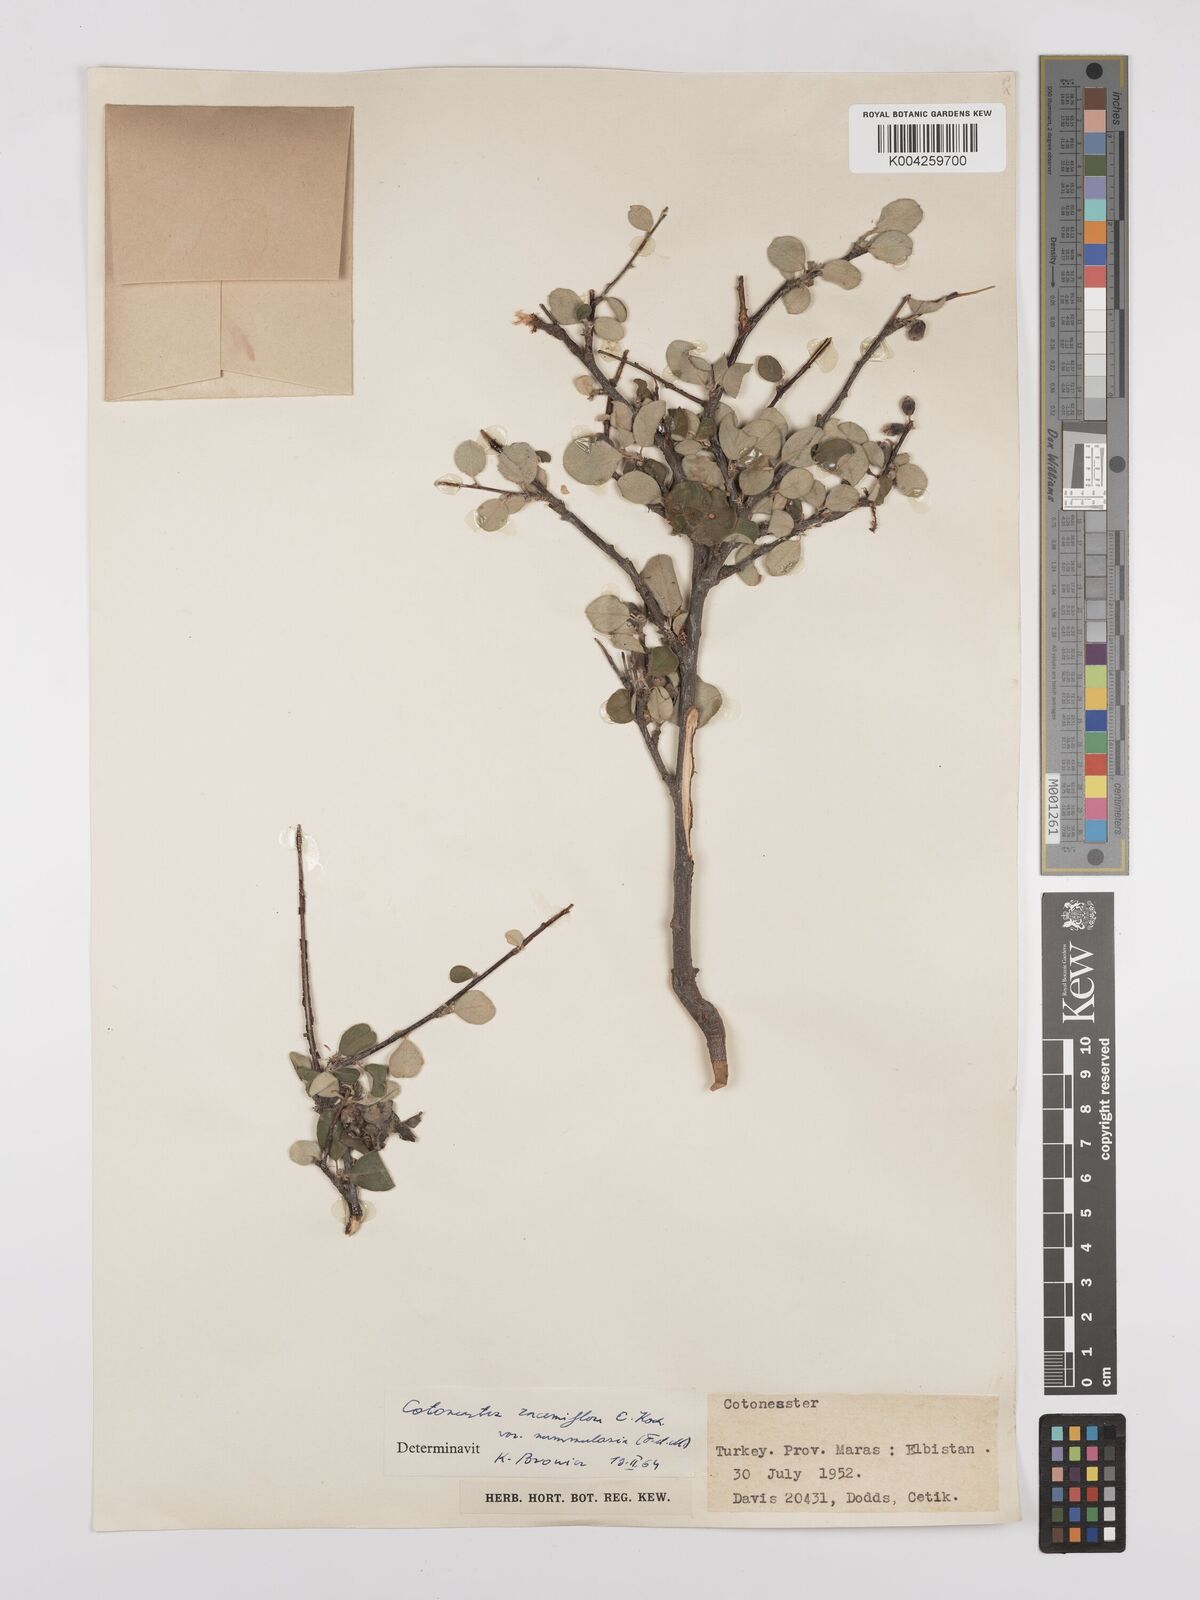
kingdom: Plantae
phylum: Tracheophyta
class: Magnoliopsida
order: Rosales
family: Rosaceae
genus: Cotoneaster
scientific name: Cotoneaster racemiflorus
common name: Cluster-flower cotoneaster
